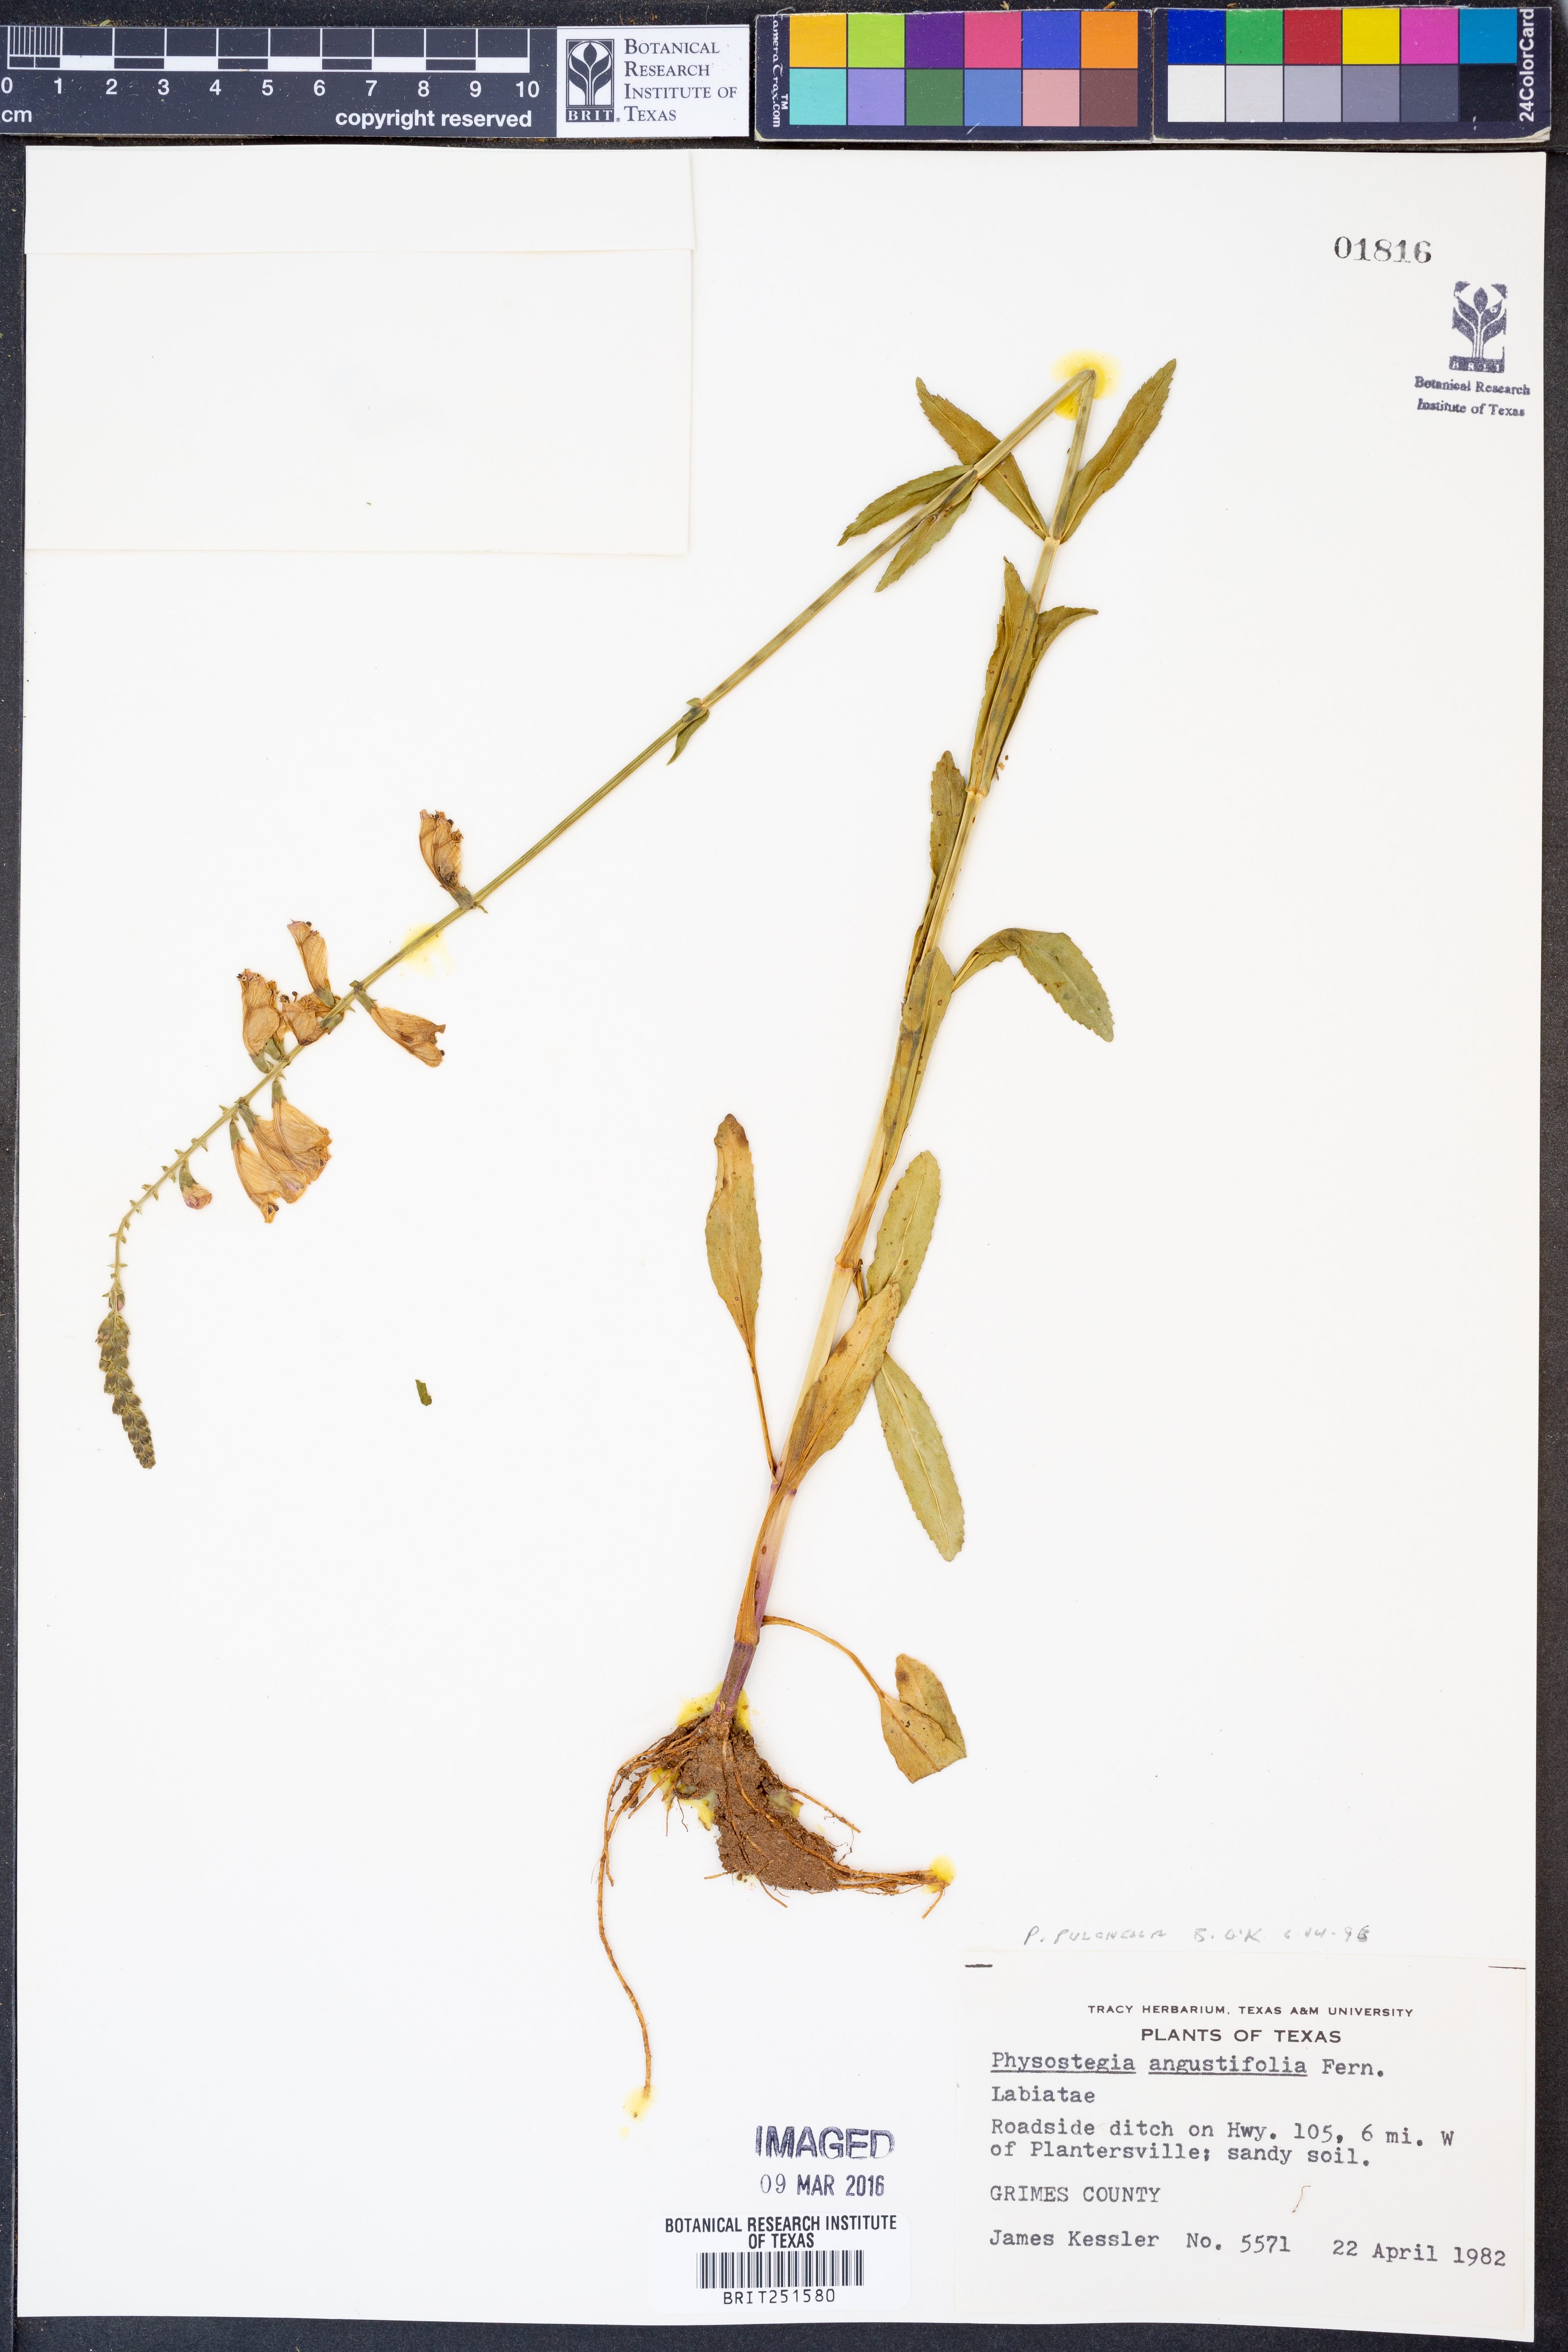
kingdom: Plantae
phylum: Tracheophyta
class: Magnoliopsida
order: Lamiales
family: Lamiaceae
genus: Physostegia
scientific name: Physostegia pulchella
